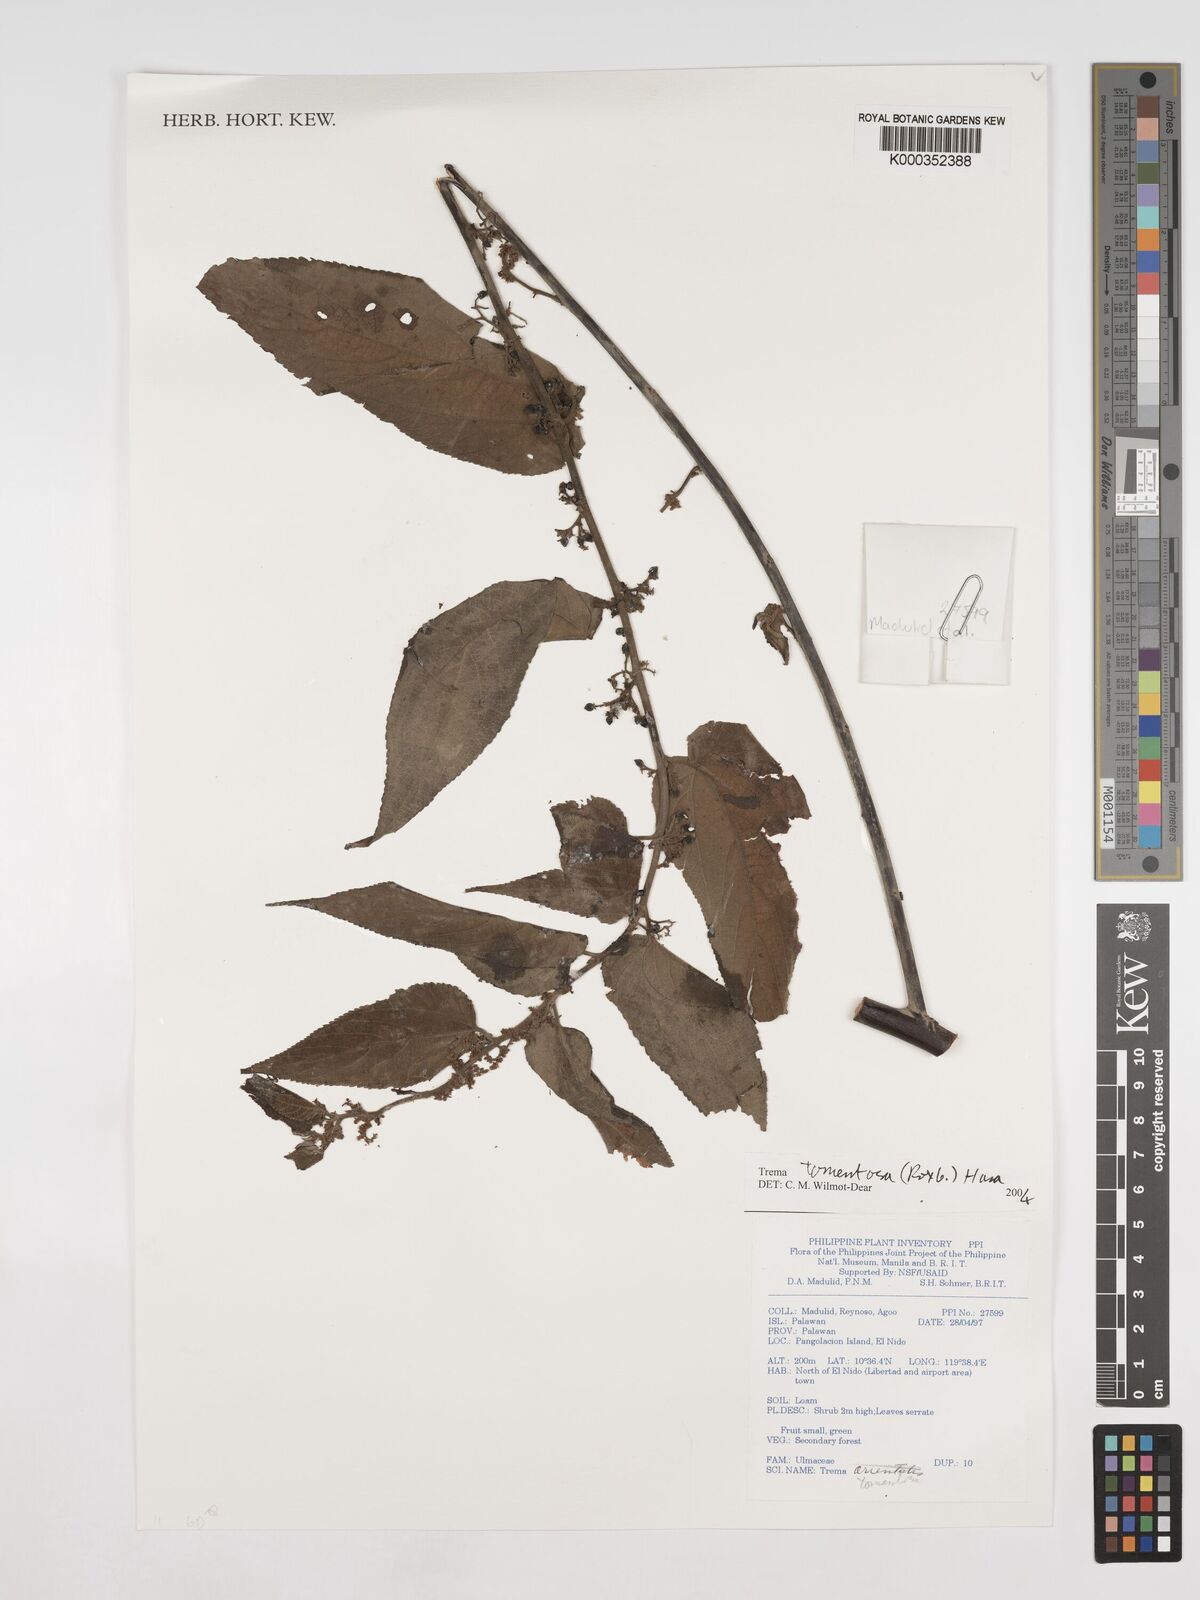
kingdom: Plantae
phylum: Tracheophyta
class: Magnoliopsida
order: Rosales
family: Cannabaceae
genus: Trema
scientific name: Trema tomentosum
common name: Peach-leaf-poisonbush
